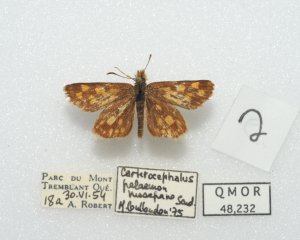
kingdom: Animalia
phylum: Arthropoda
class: Insecta
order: Lepidoptera
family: Hesperiidae
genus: Carterocephalus
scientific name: Carterocephalus palaemon
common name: Chequered Skipper
